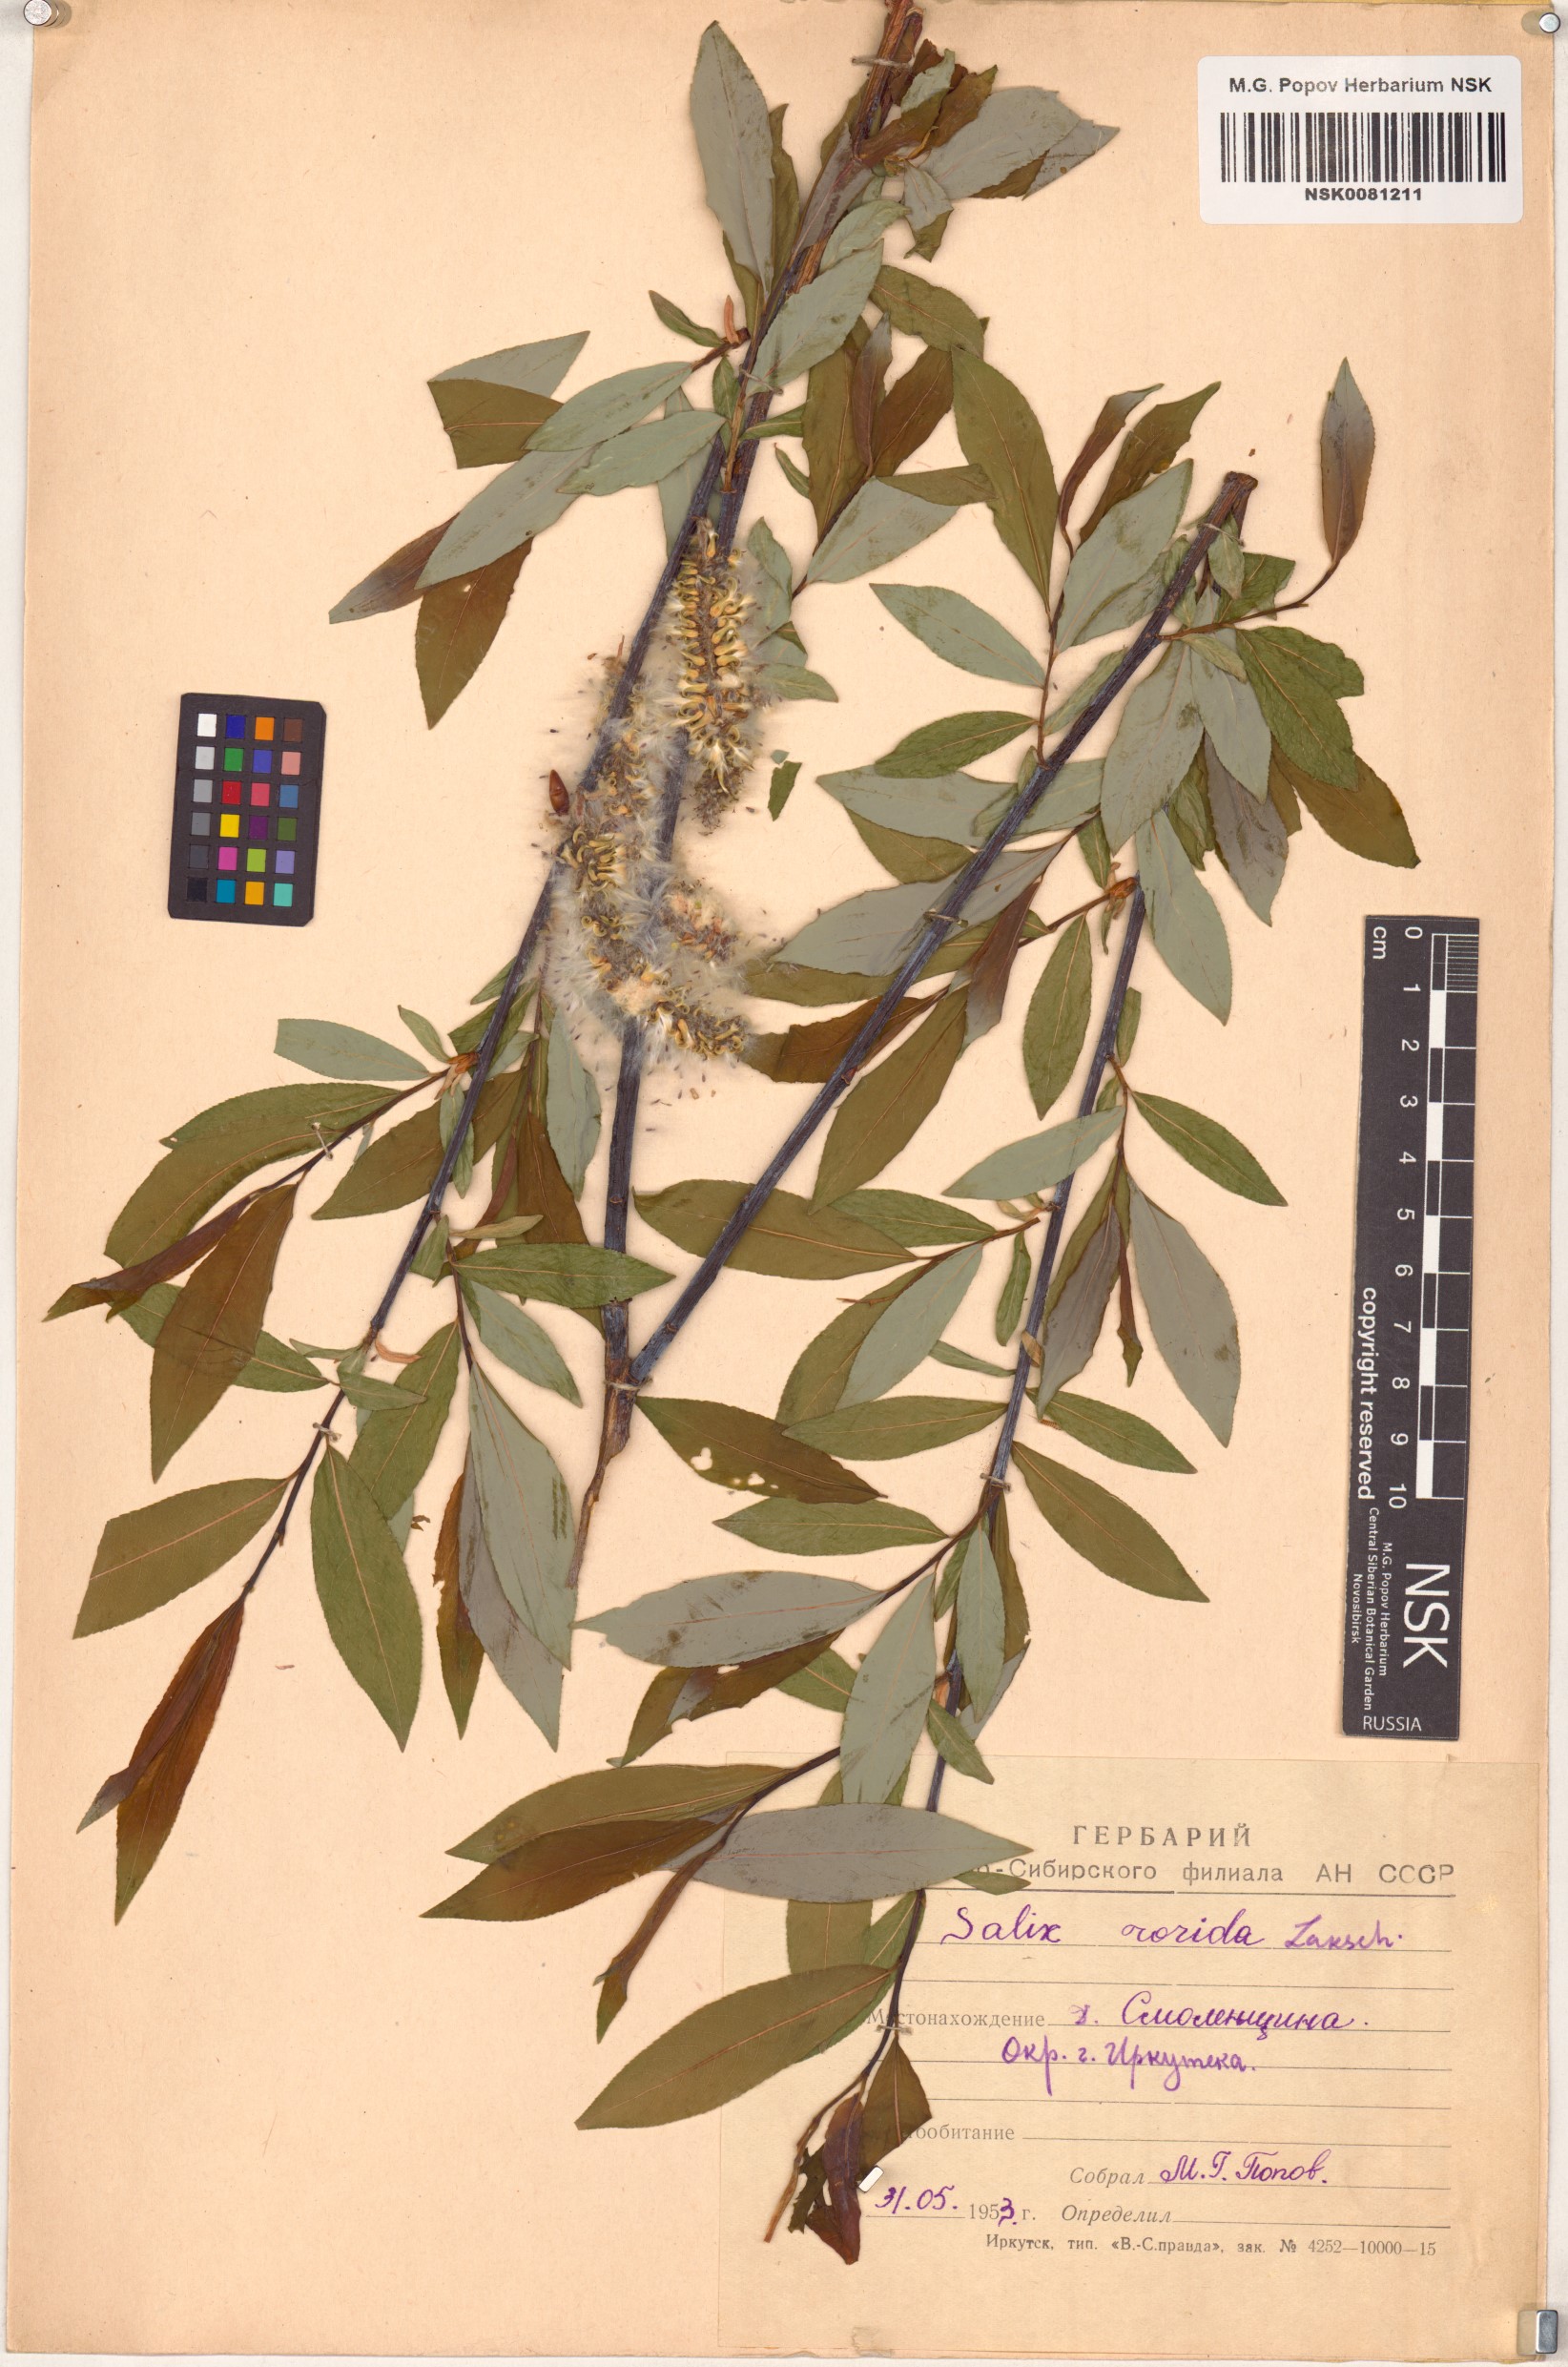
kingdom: Plantae
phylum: Tracheophyta
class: Magnoliopsida
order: Malpighiales
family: Salicaceae
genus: Salix
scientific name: Salix rorida
